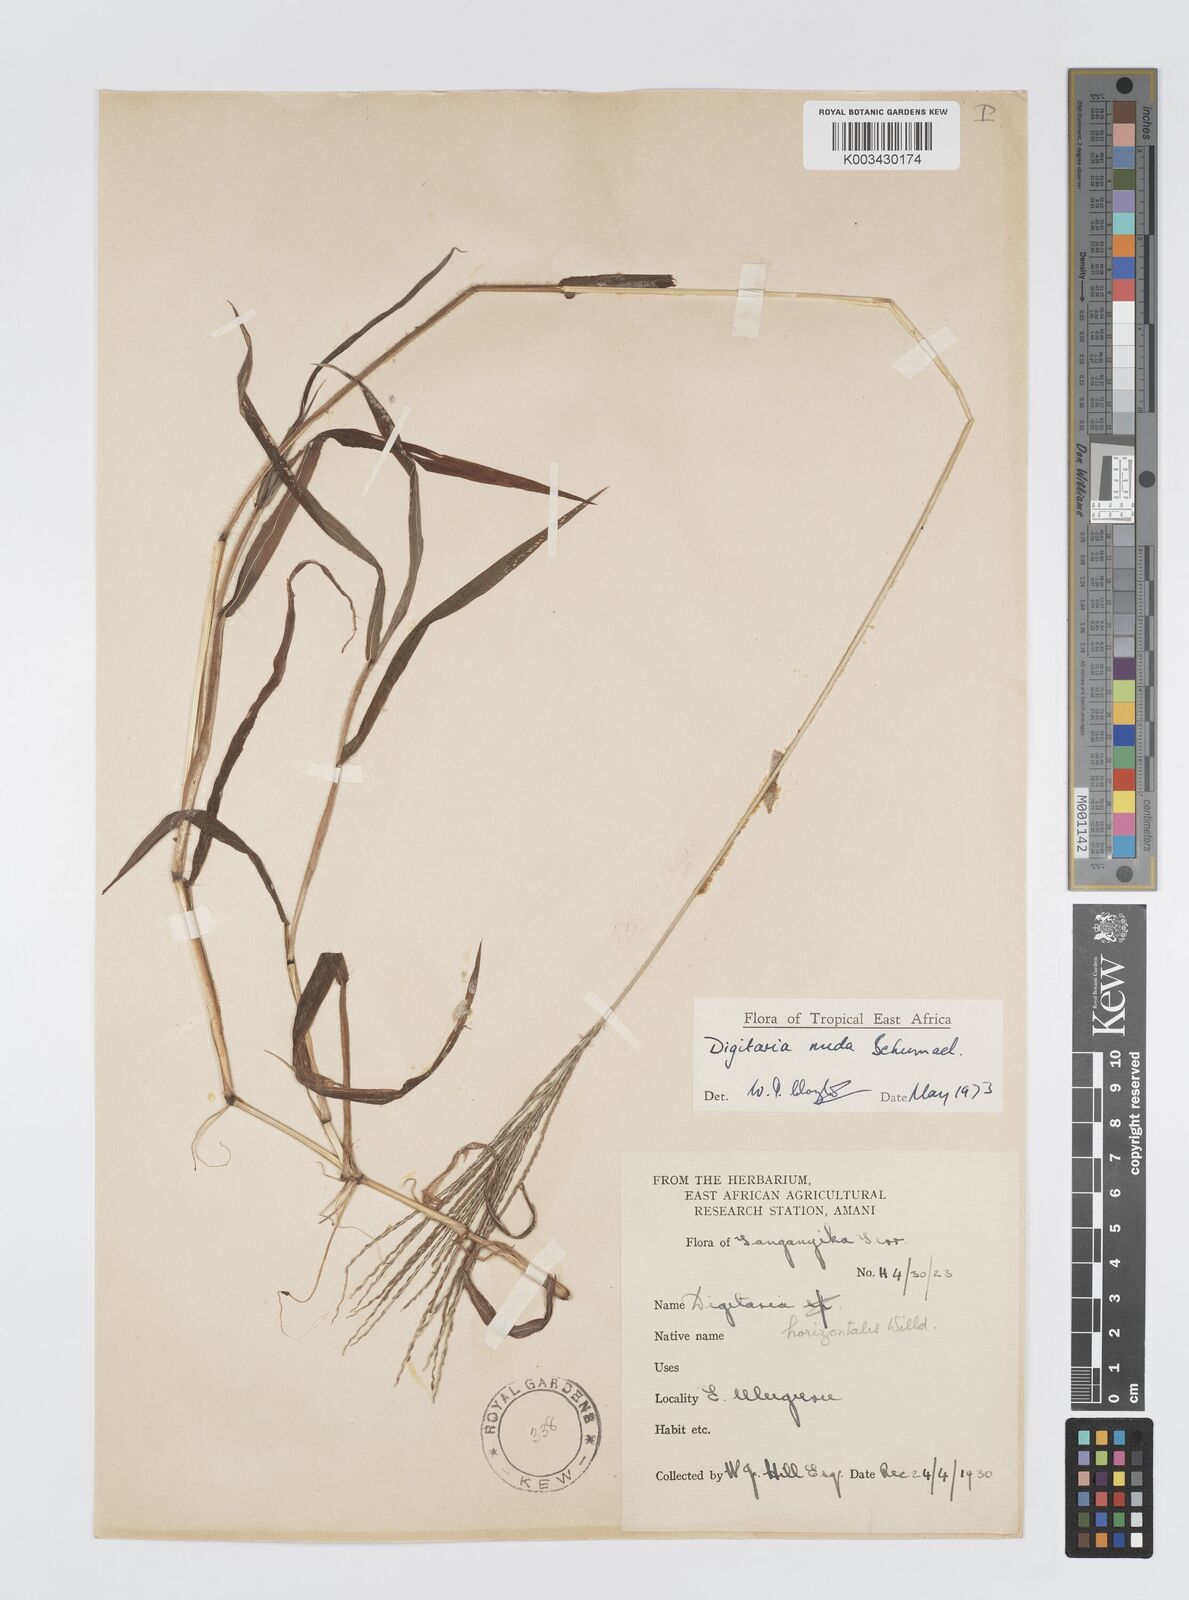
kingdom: Plantae
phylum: Tracheophyta
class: Liliopsida
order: Poales
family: Poaceae
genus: Digitaria
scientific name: Digitaria nuda
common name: Naked crabgrass
